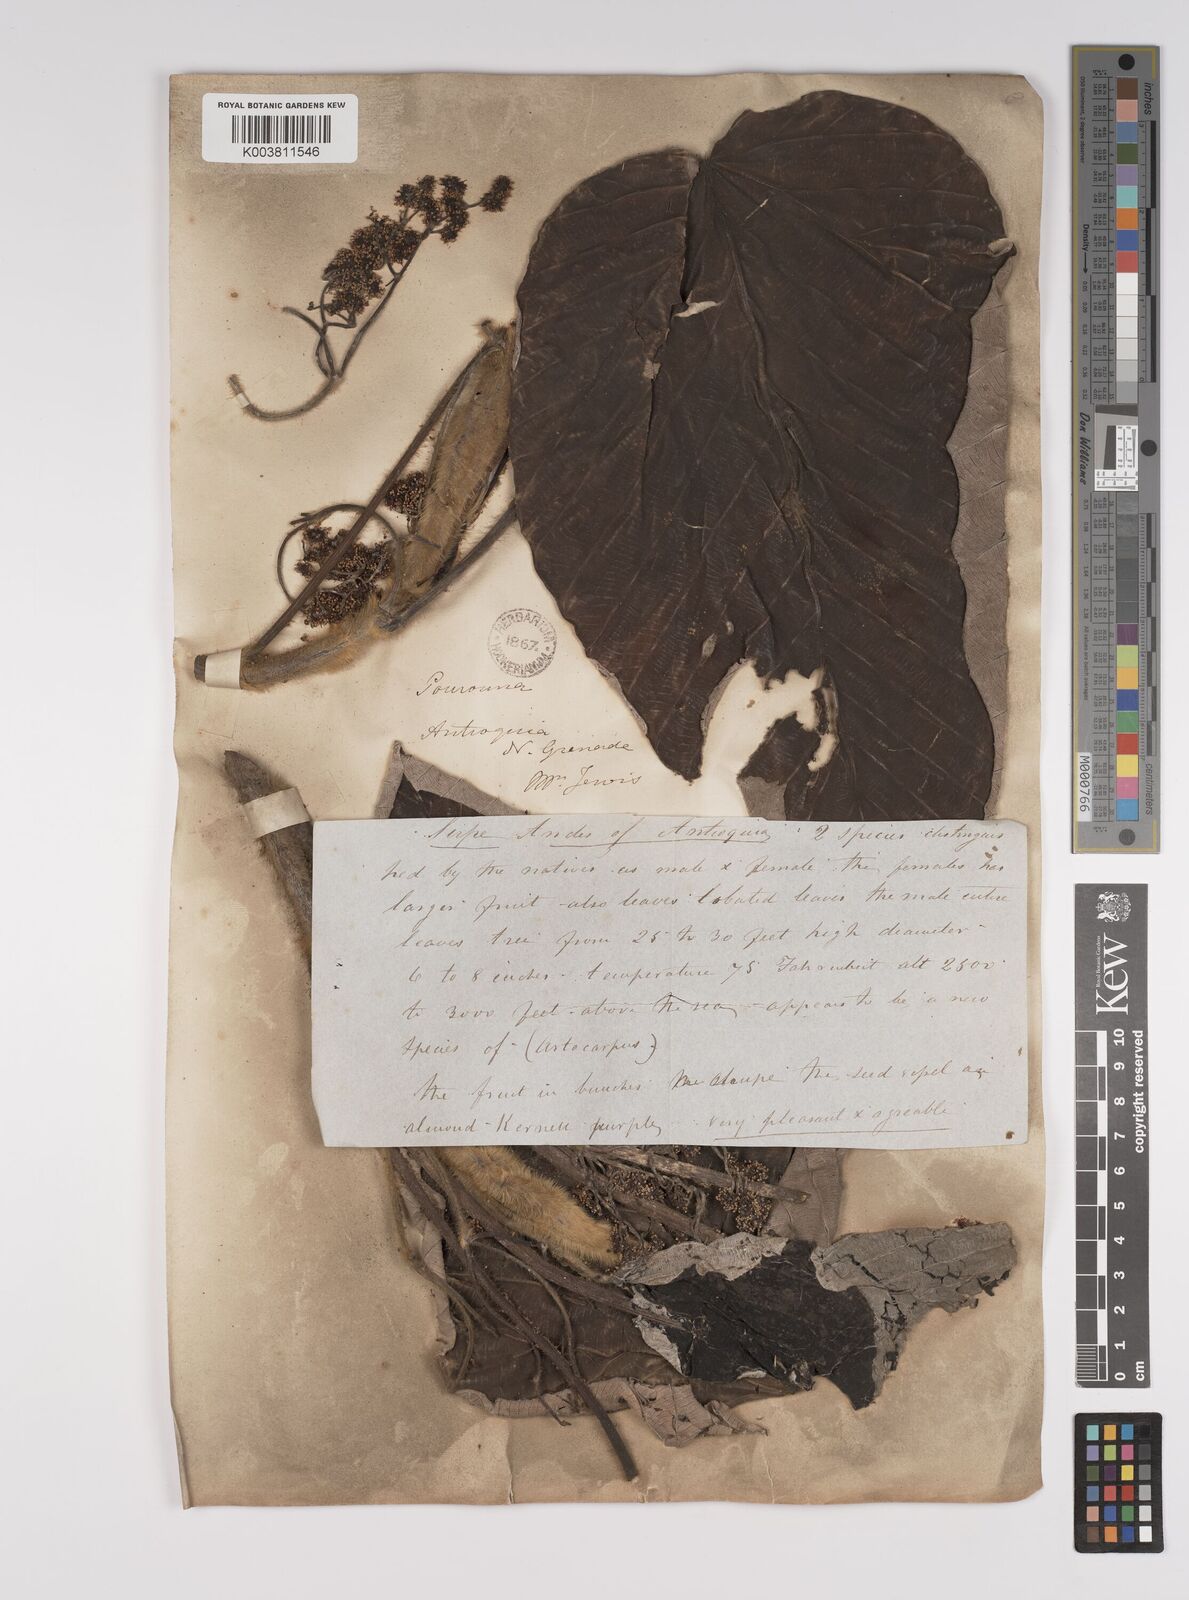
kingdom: Plantae
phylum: Tracheophyta
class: Magnoliopsida
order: Rosales
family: Urticaceae
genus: Pourouma
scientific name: Pourouma
